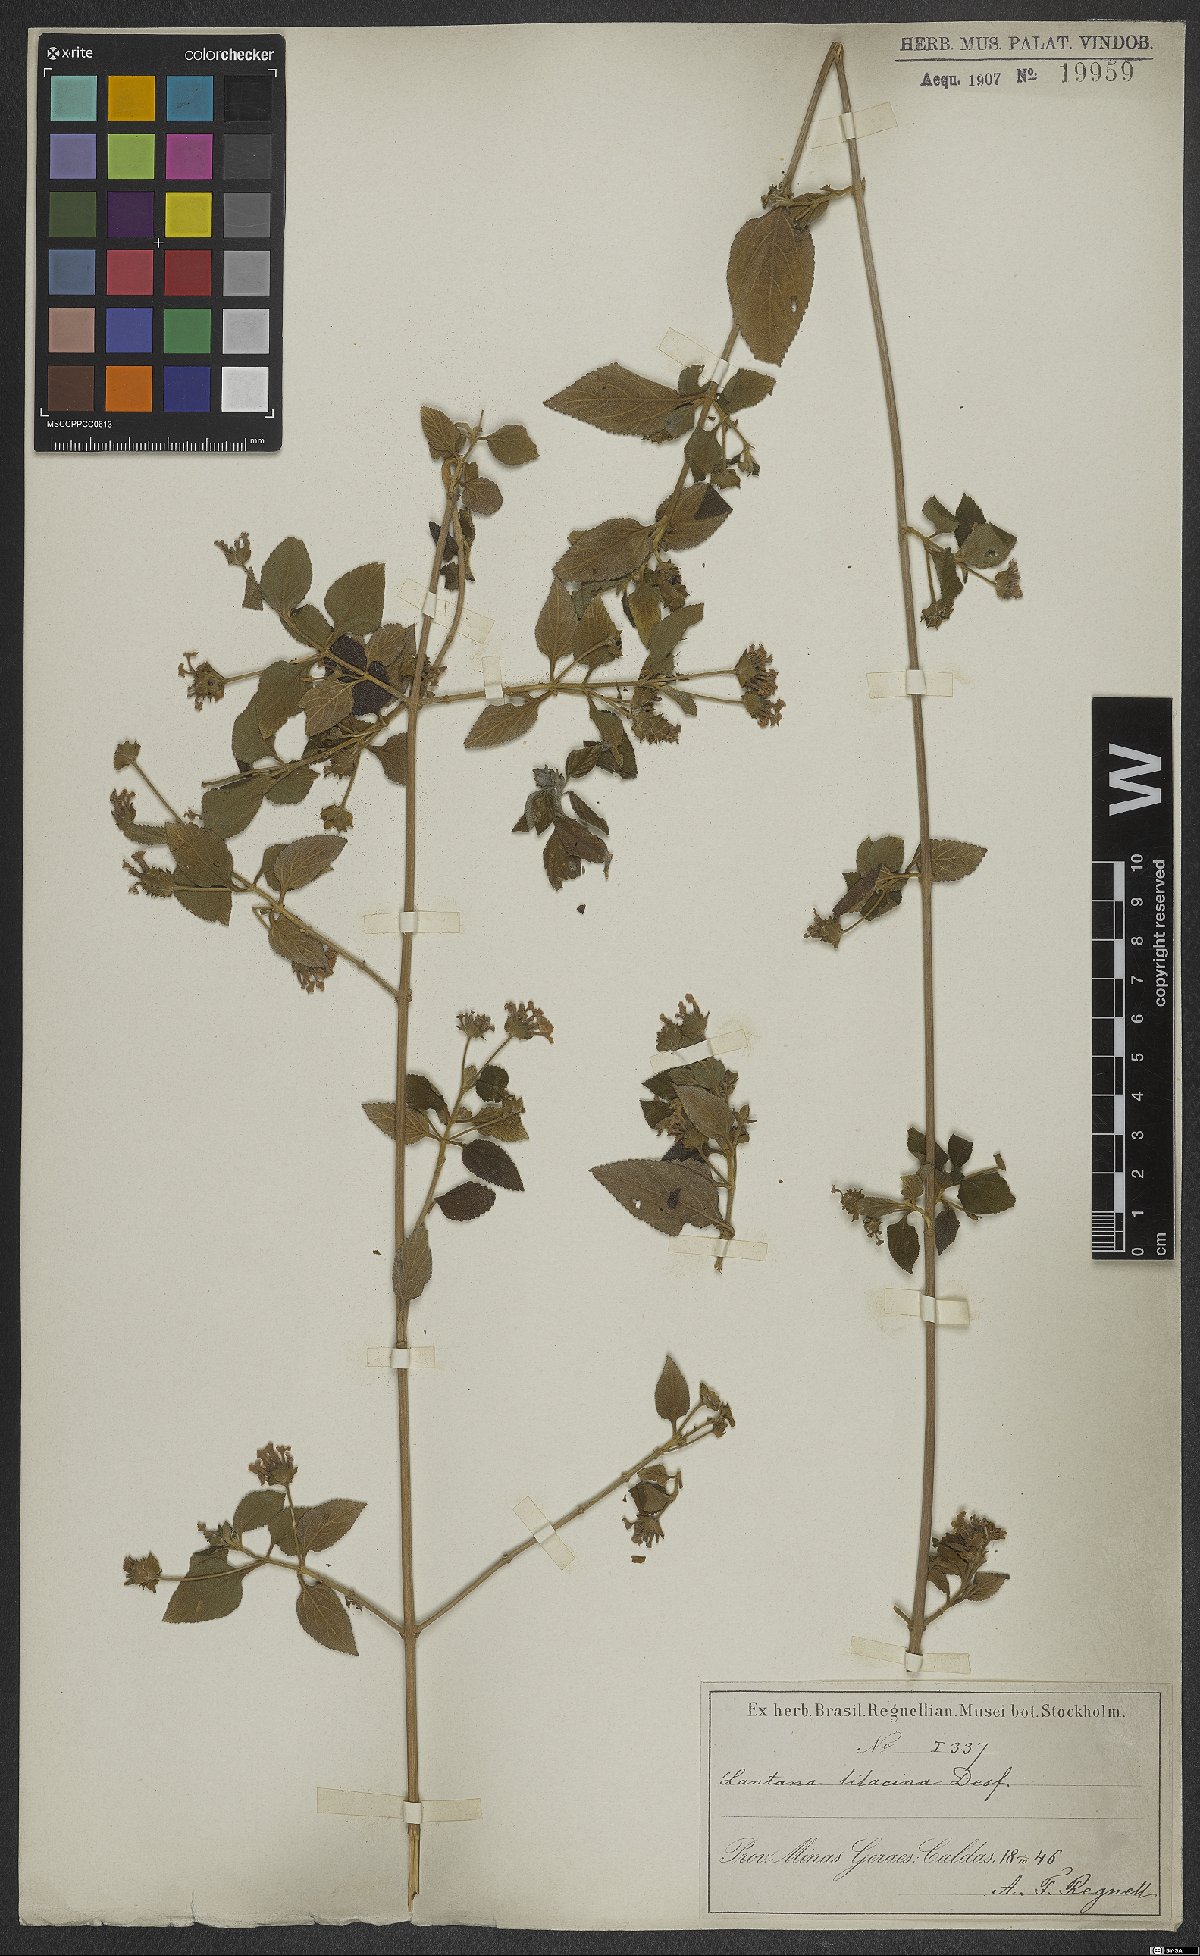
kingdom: Plantae
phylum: Tracheophyta
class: Magnoliopsida
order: Lamiales
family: Verbenaceae
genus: Lantana
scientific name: Lantana fucata
